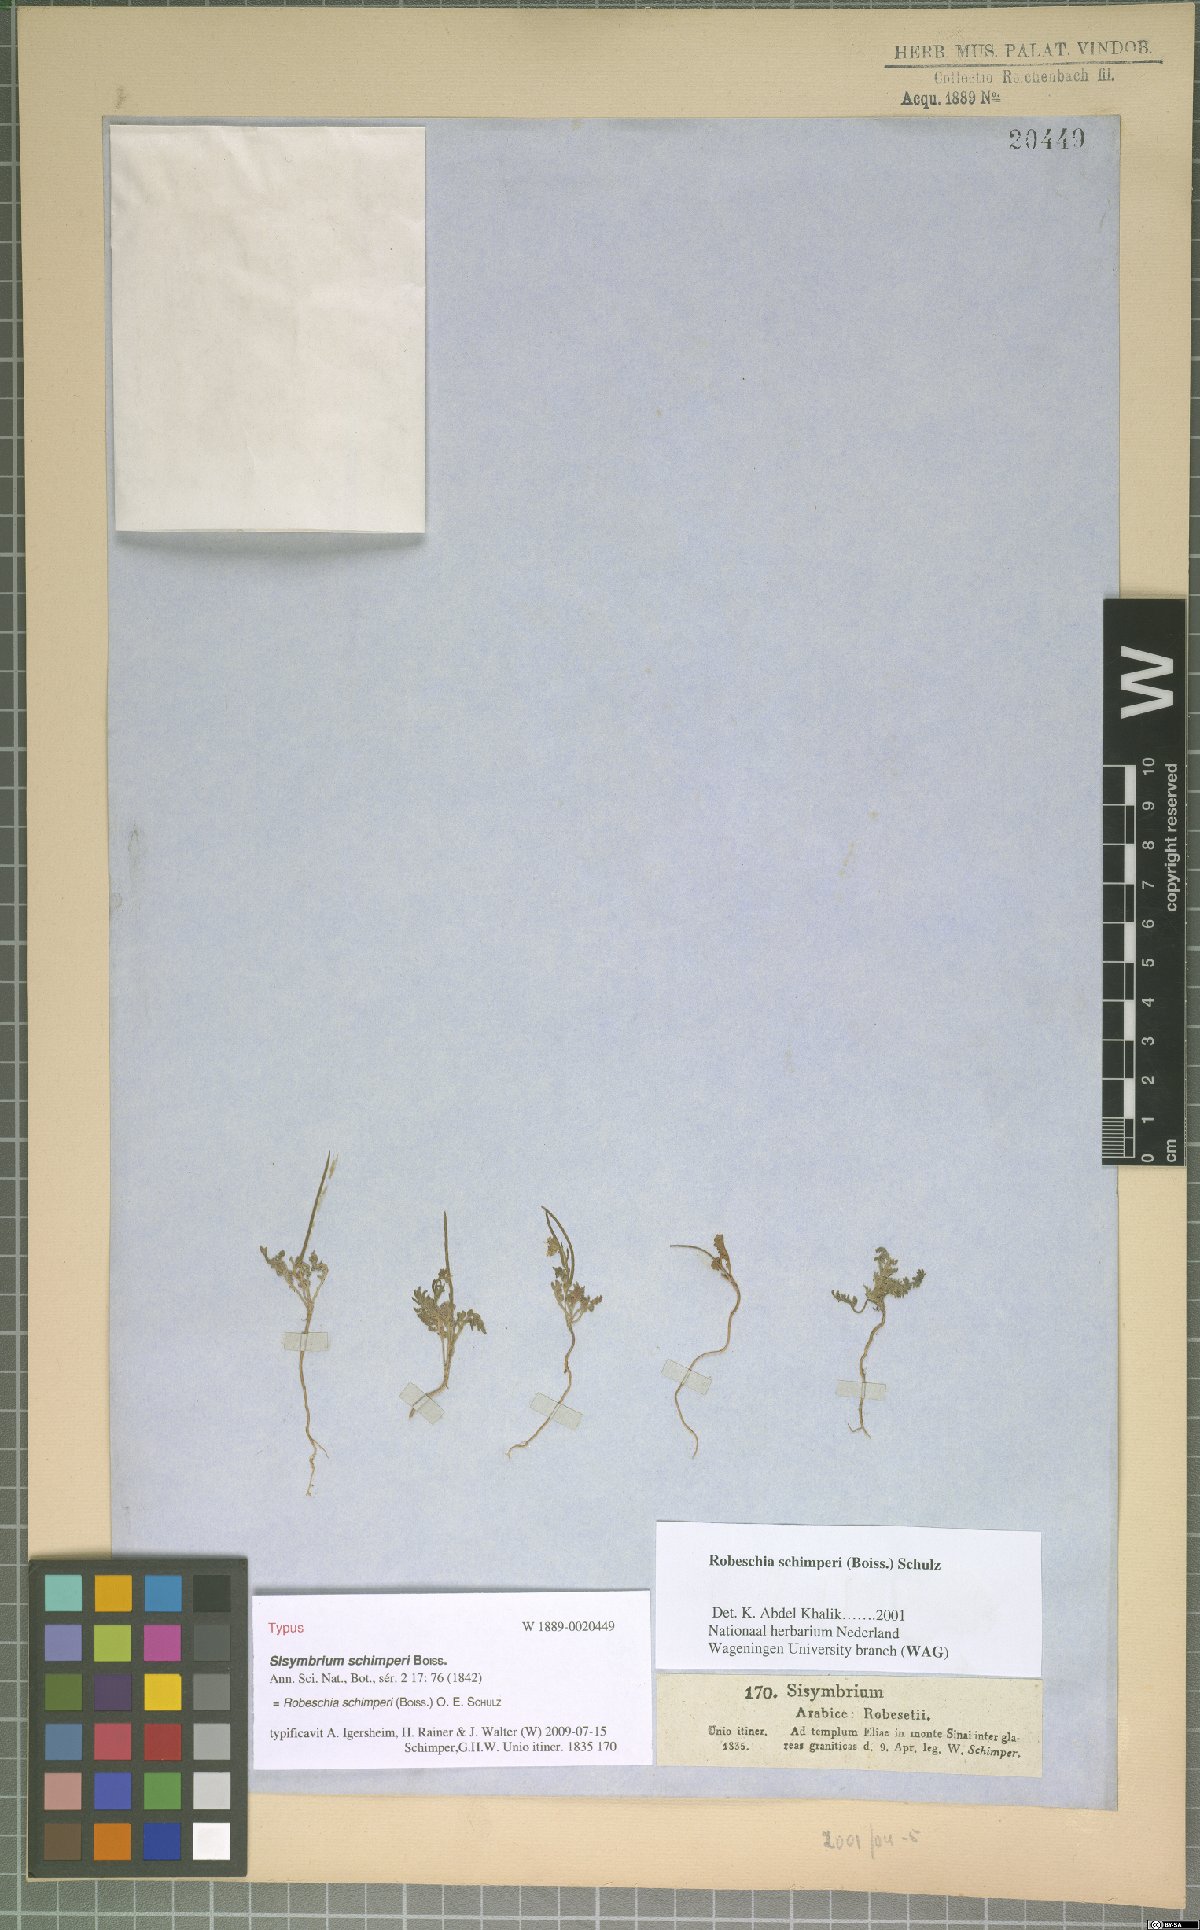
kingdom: Plantae
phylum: Tracheophyta
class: Magnoliopsida
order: Brassicales
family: Brassicaceae
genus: Robeschia
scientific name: Robeschia schimperi
